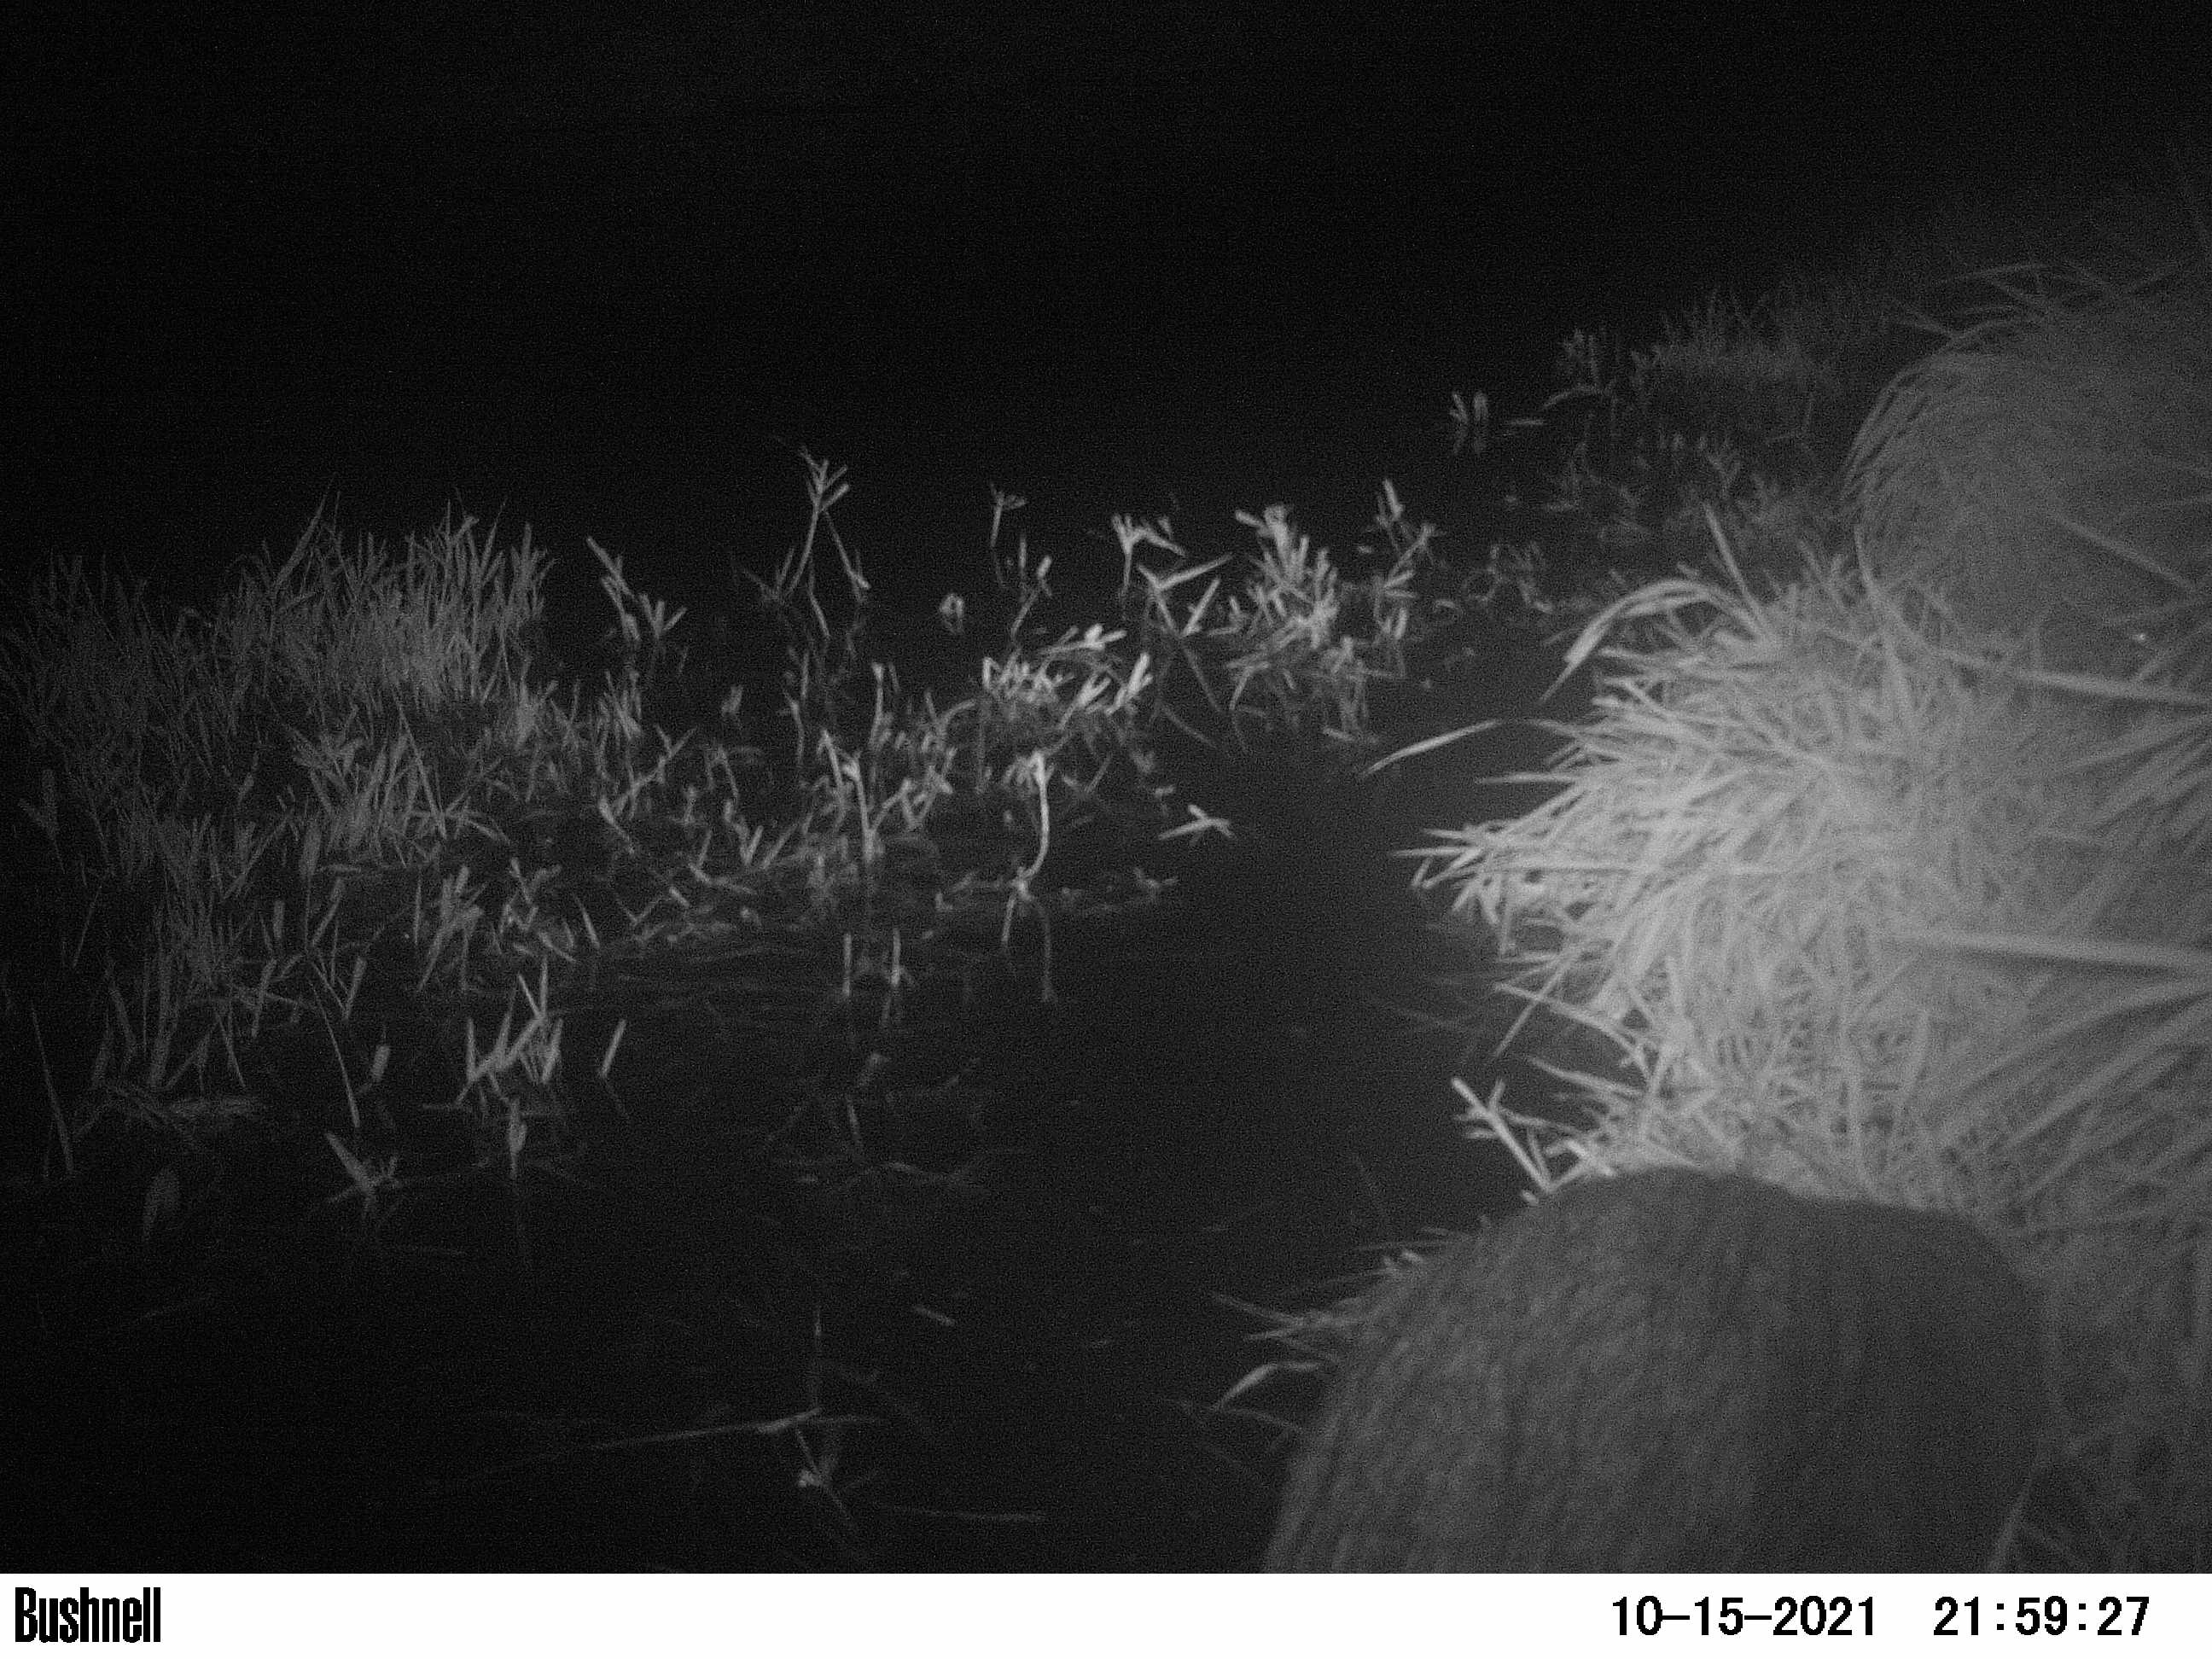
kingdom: Animalia
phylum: Chordata
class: Mammalia
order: Rodentia
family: Muridae
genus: Rattus
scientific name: Rattus norvegicus
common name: Brown rat
